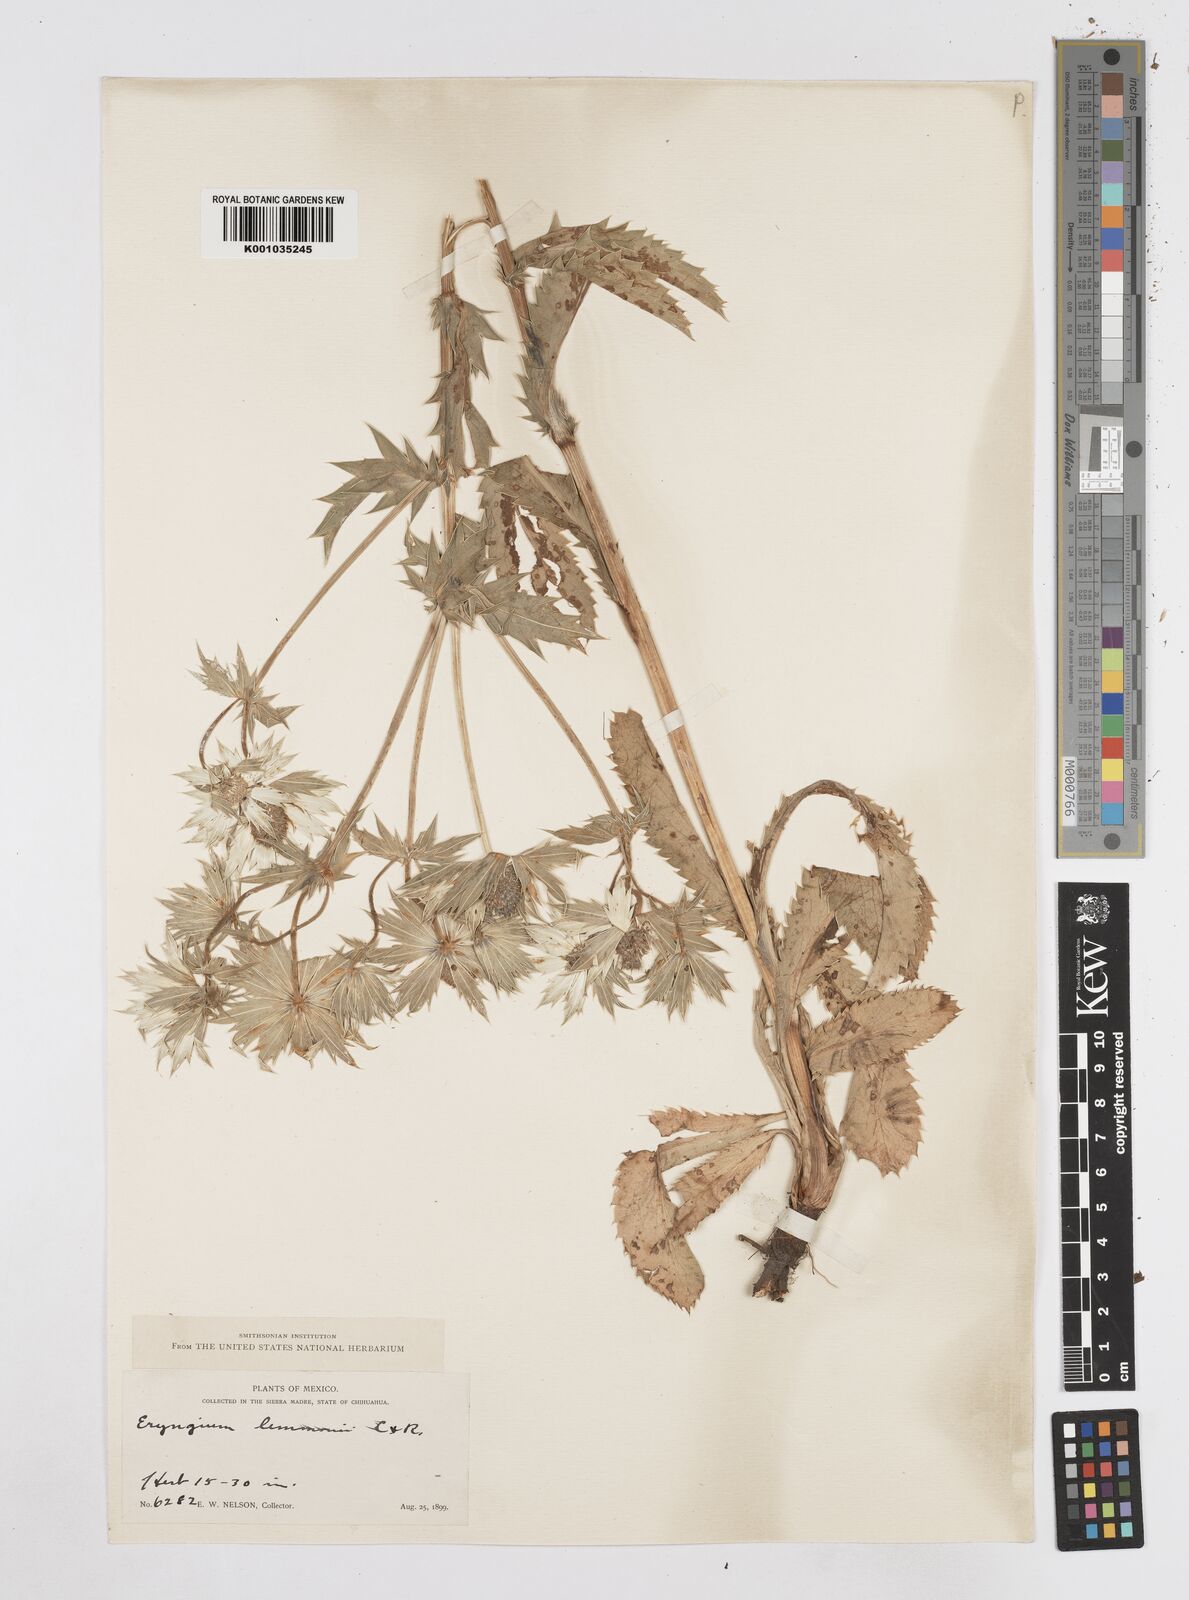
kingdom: Plantae
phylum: Tracheophyta
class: Magnoliopsida
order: Apiales
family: Apiaceae
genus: Eryngium
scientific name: Eryngium lemmonii
